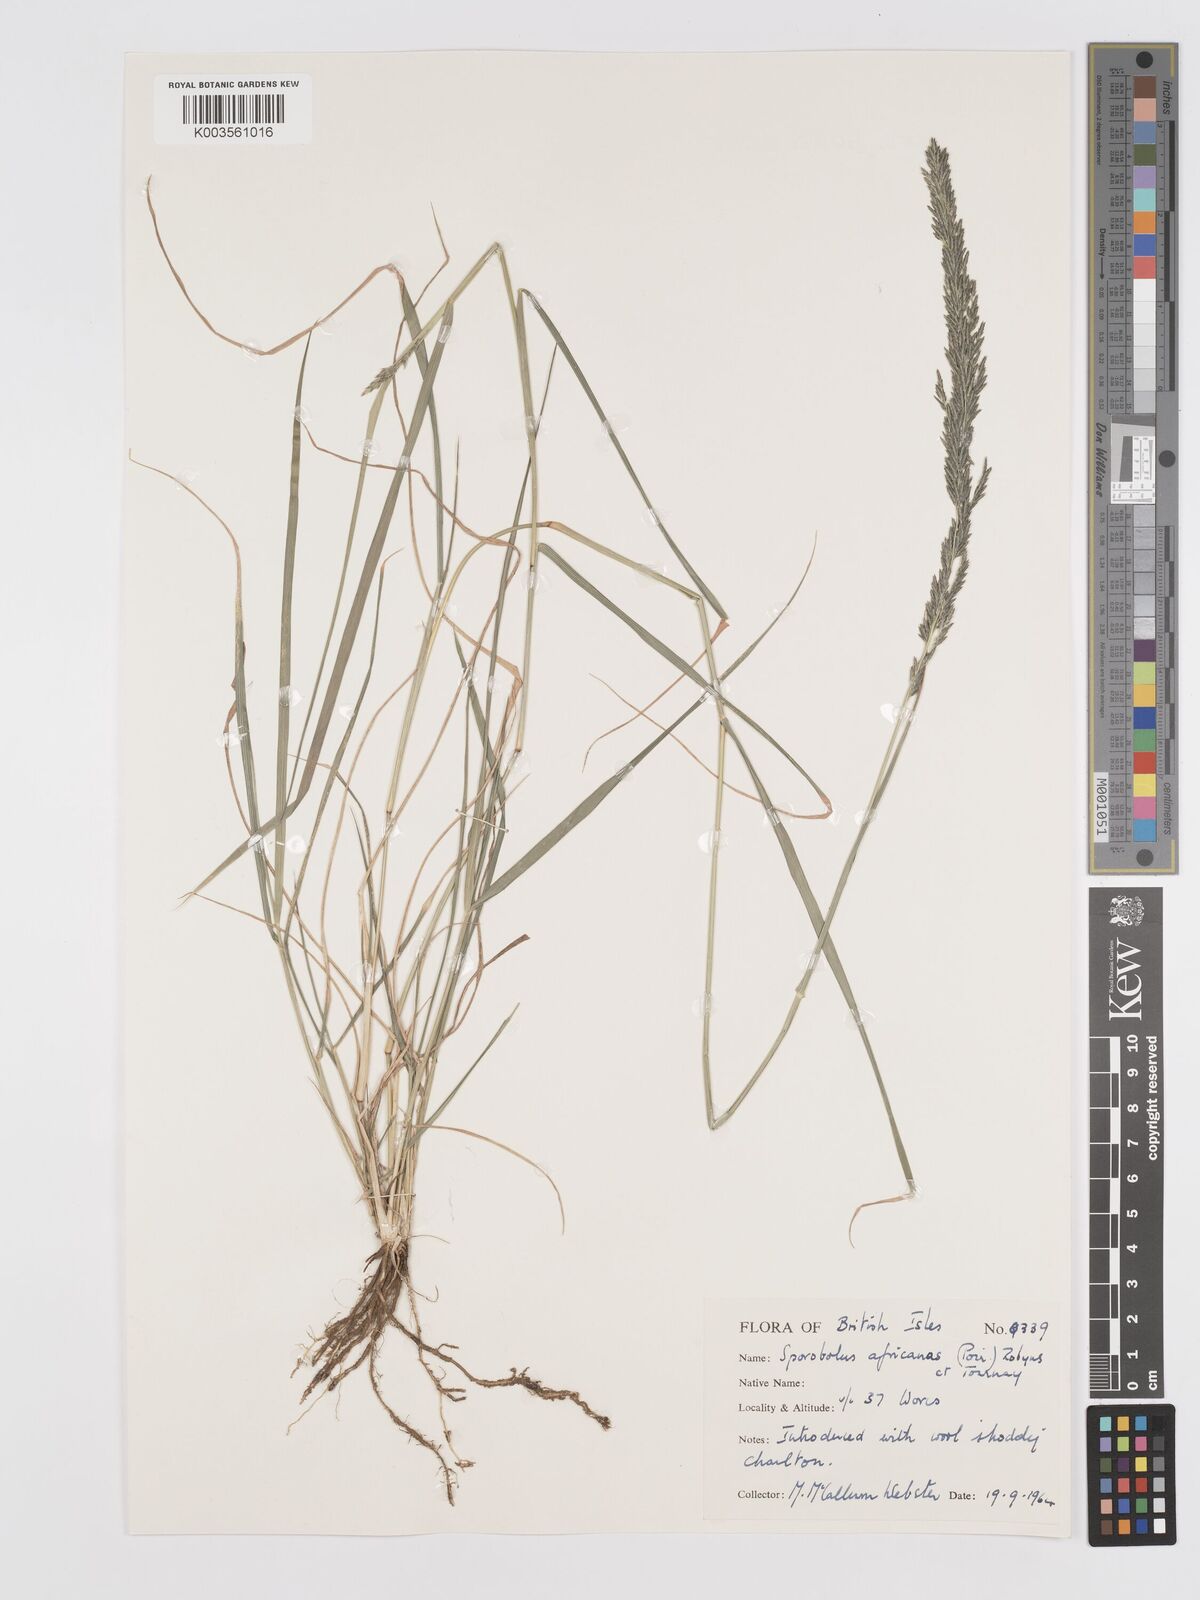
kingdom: Plantae
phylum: Tracheophyta
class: Liliopsida
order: Poales
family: Poaceae
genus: Eragrostis
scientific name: Eragrostis
